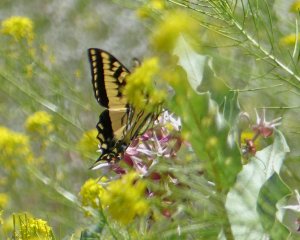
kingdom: Animalia
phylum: Arthropoda
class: Insecta
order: Lepidoptera
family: Papilionidae
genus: Pterourus
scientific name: Pterourus rutulus
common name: Western Tiger Swallowtail
